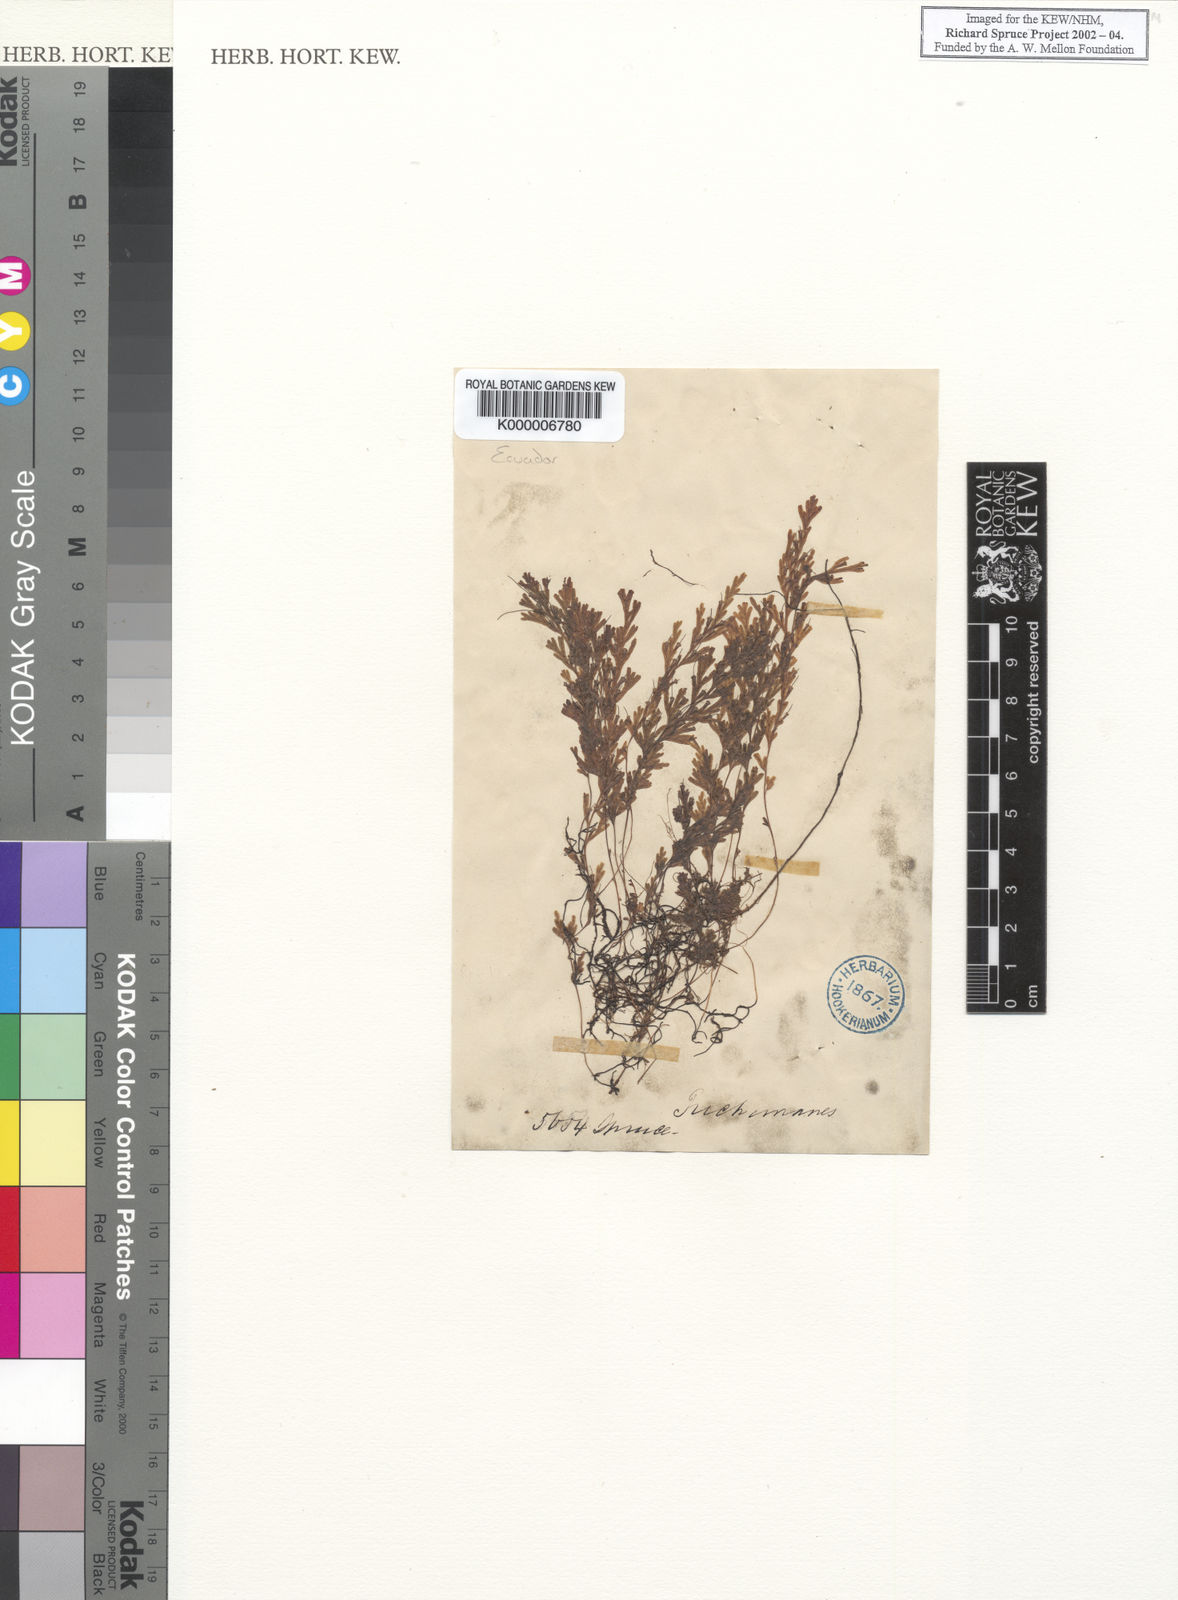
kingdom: Plantae
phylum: Tracheophyta
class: Polypodiopsida
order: Hymenophyllales
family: Hymenophyllaceae
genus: Trichomanes
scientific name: Trichomanes
